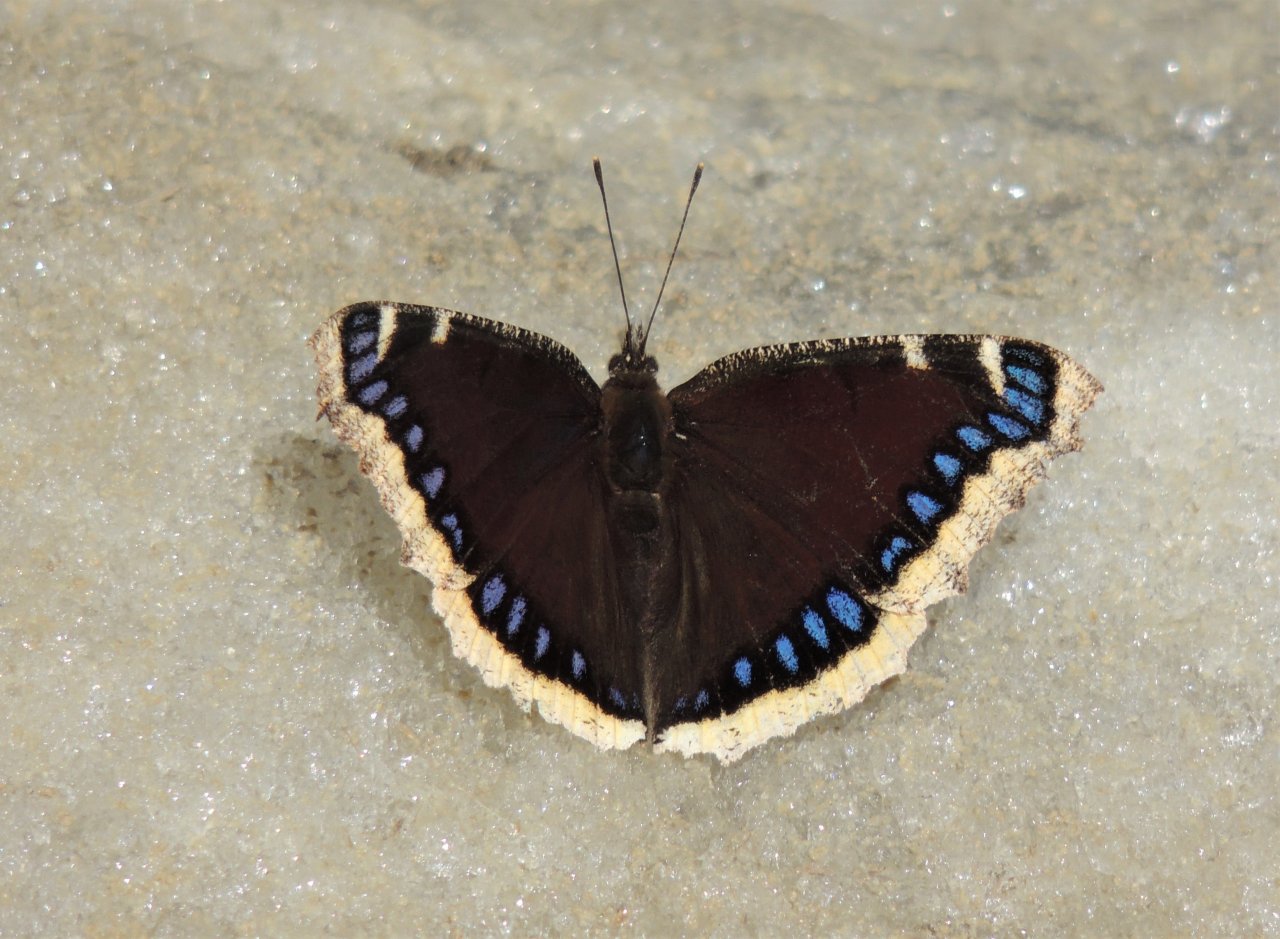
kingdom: Animalia
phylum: Arthropoda
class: Insecta
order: Lepidoptera
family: Nymphalidae
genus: Nymphalis
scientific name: Nymphalis antiopa
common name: Mourning Cloak
